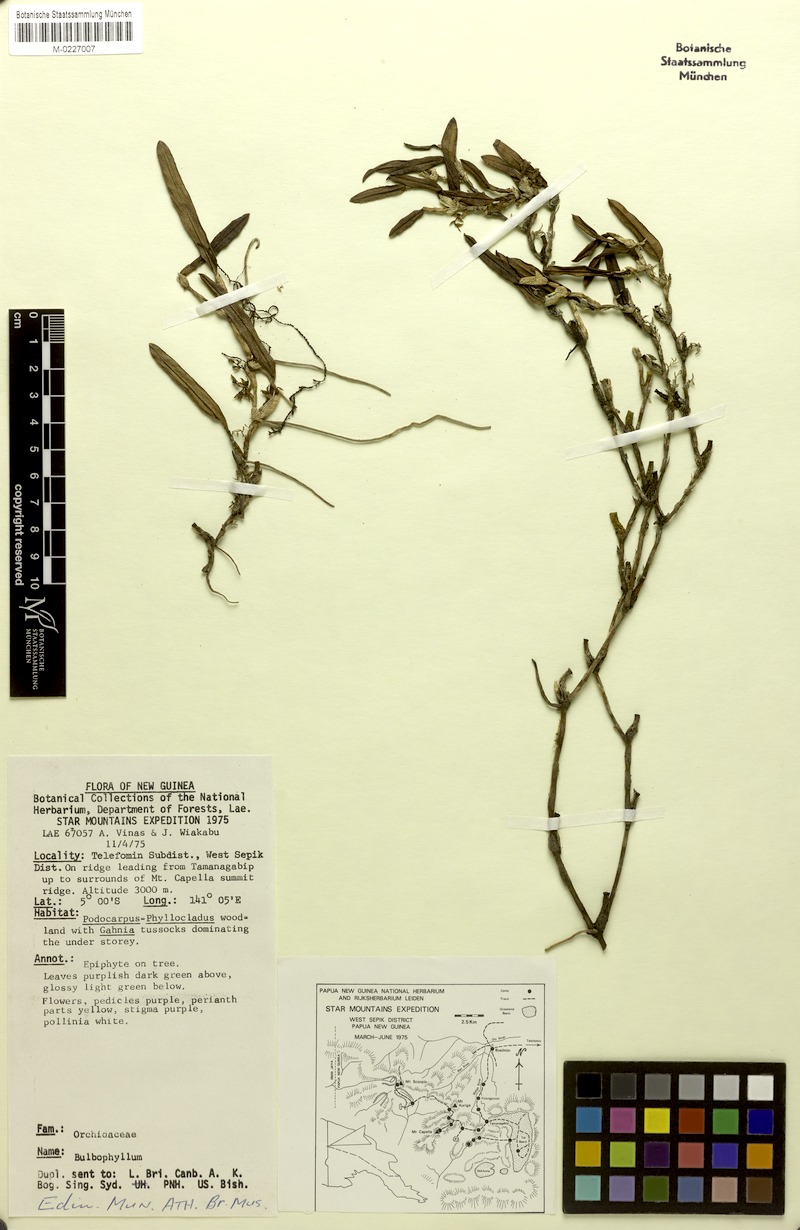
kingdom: Plantae
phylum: Tracheophyta
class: Liliopsida
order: Asparagales
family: Orchidaceae
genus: Bulbophyllum
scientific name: Bulbophyllum imitator
